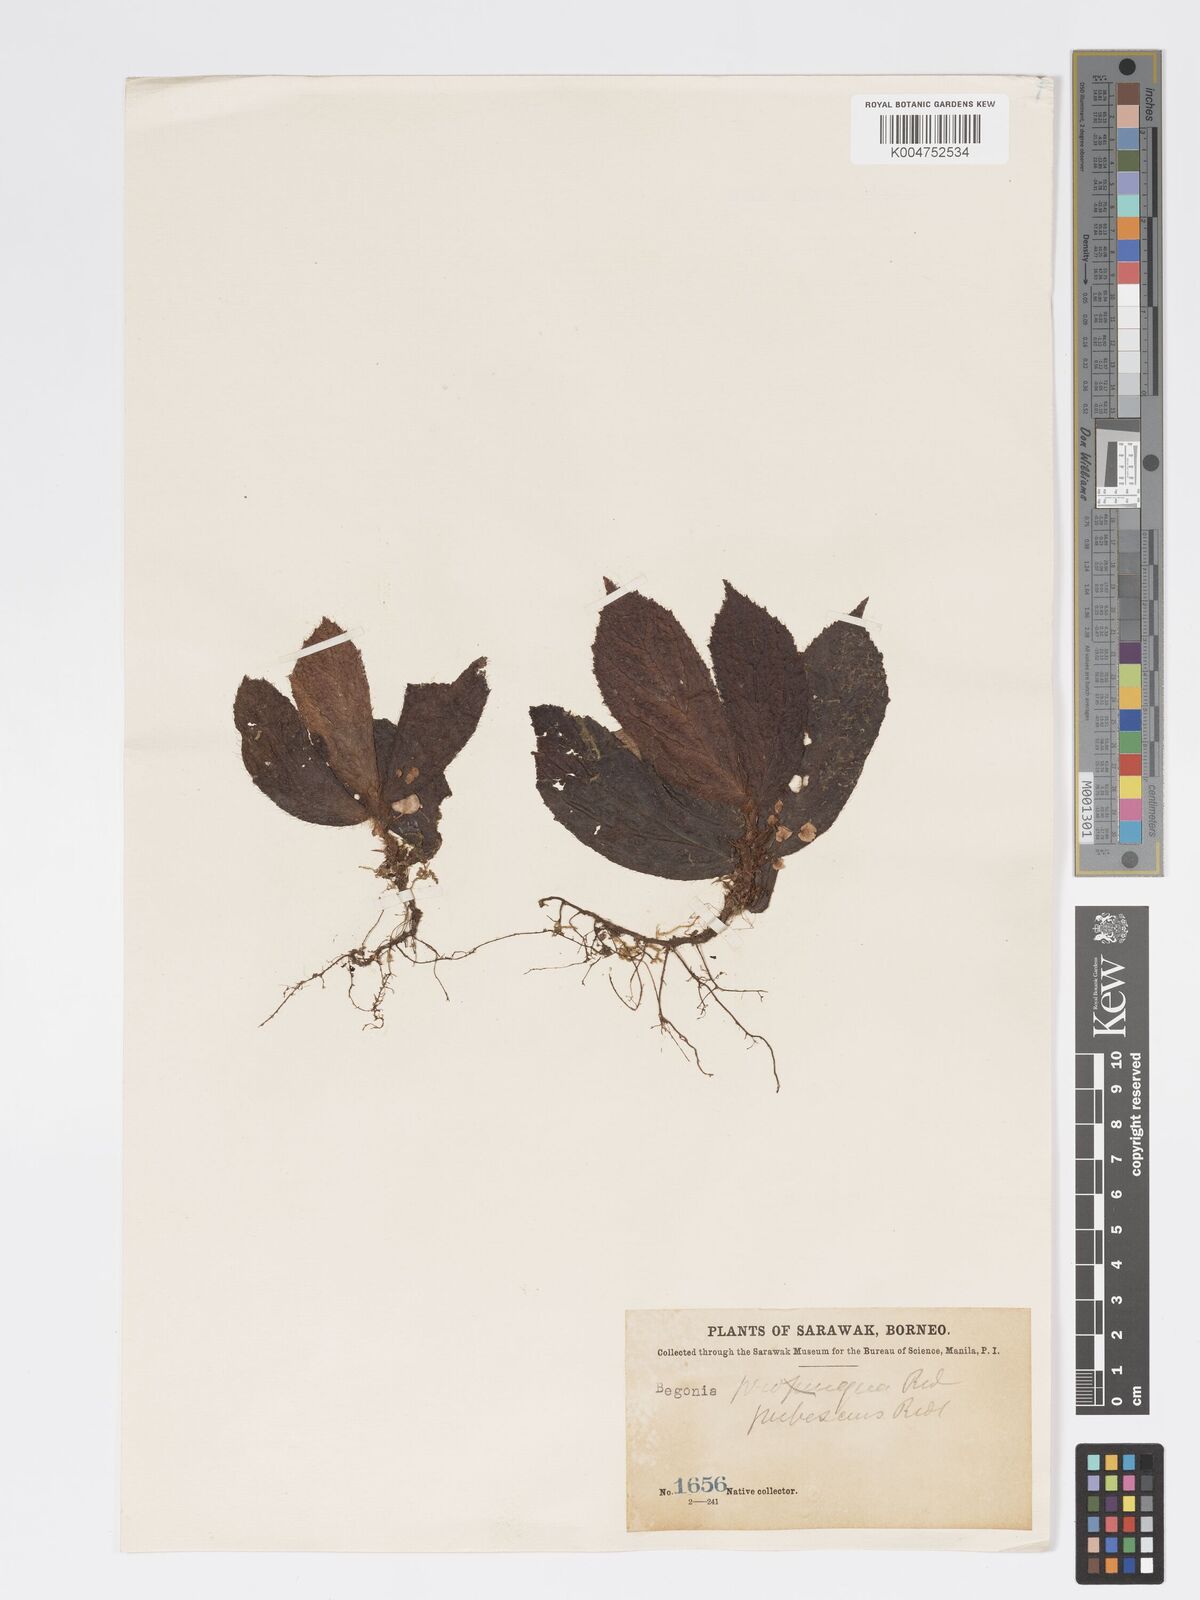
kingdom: Plantae
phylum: Tracheophyta
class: Magnoliopsida
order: Cucurbitales
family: Begoniaceae
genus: Begonia
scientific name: Begonia pubescens
